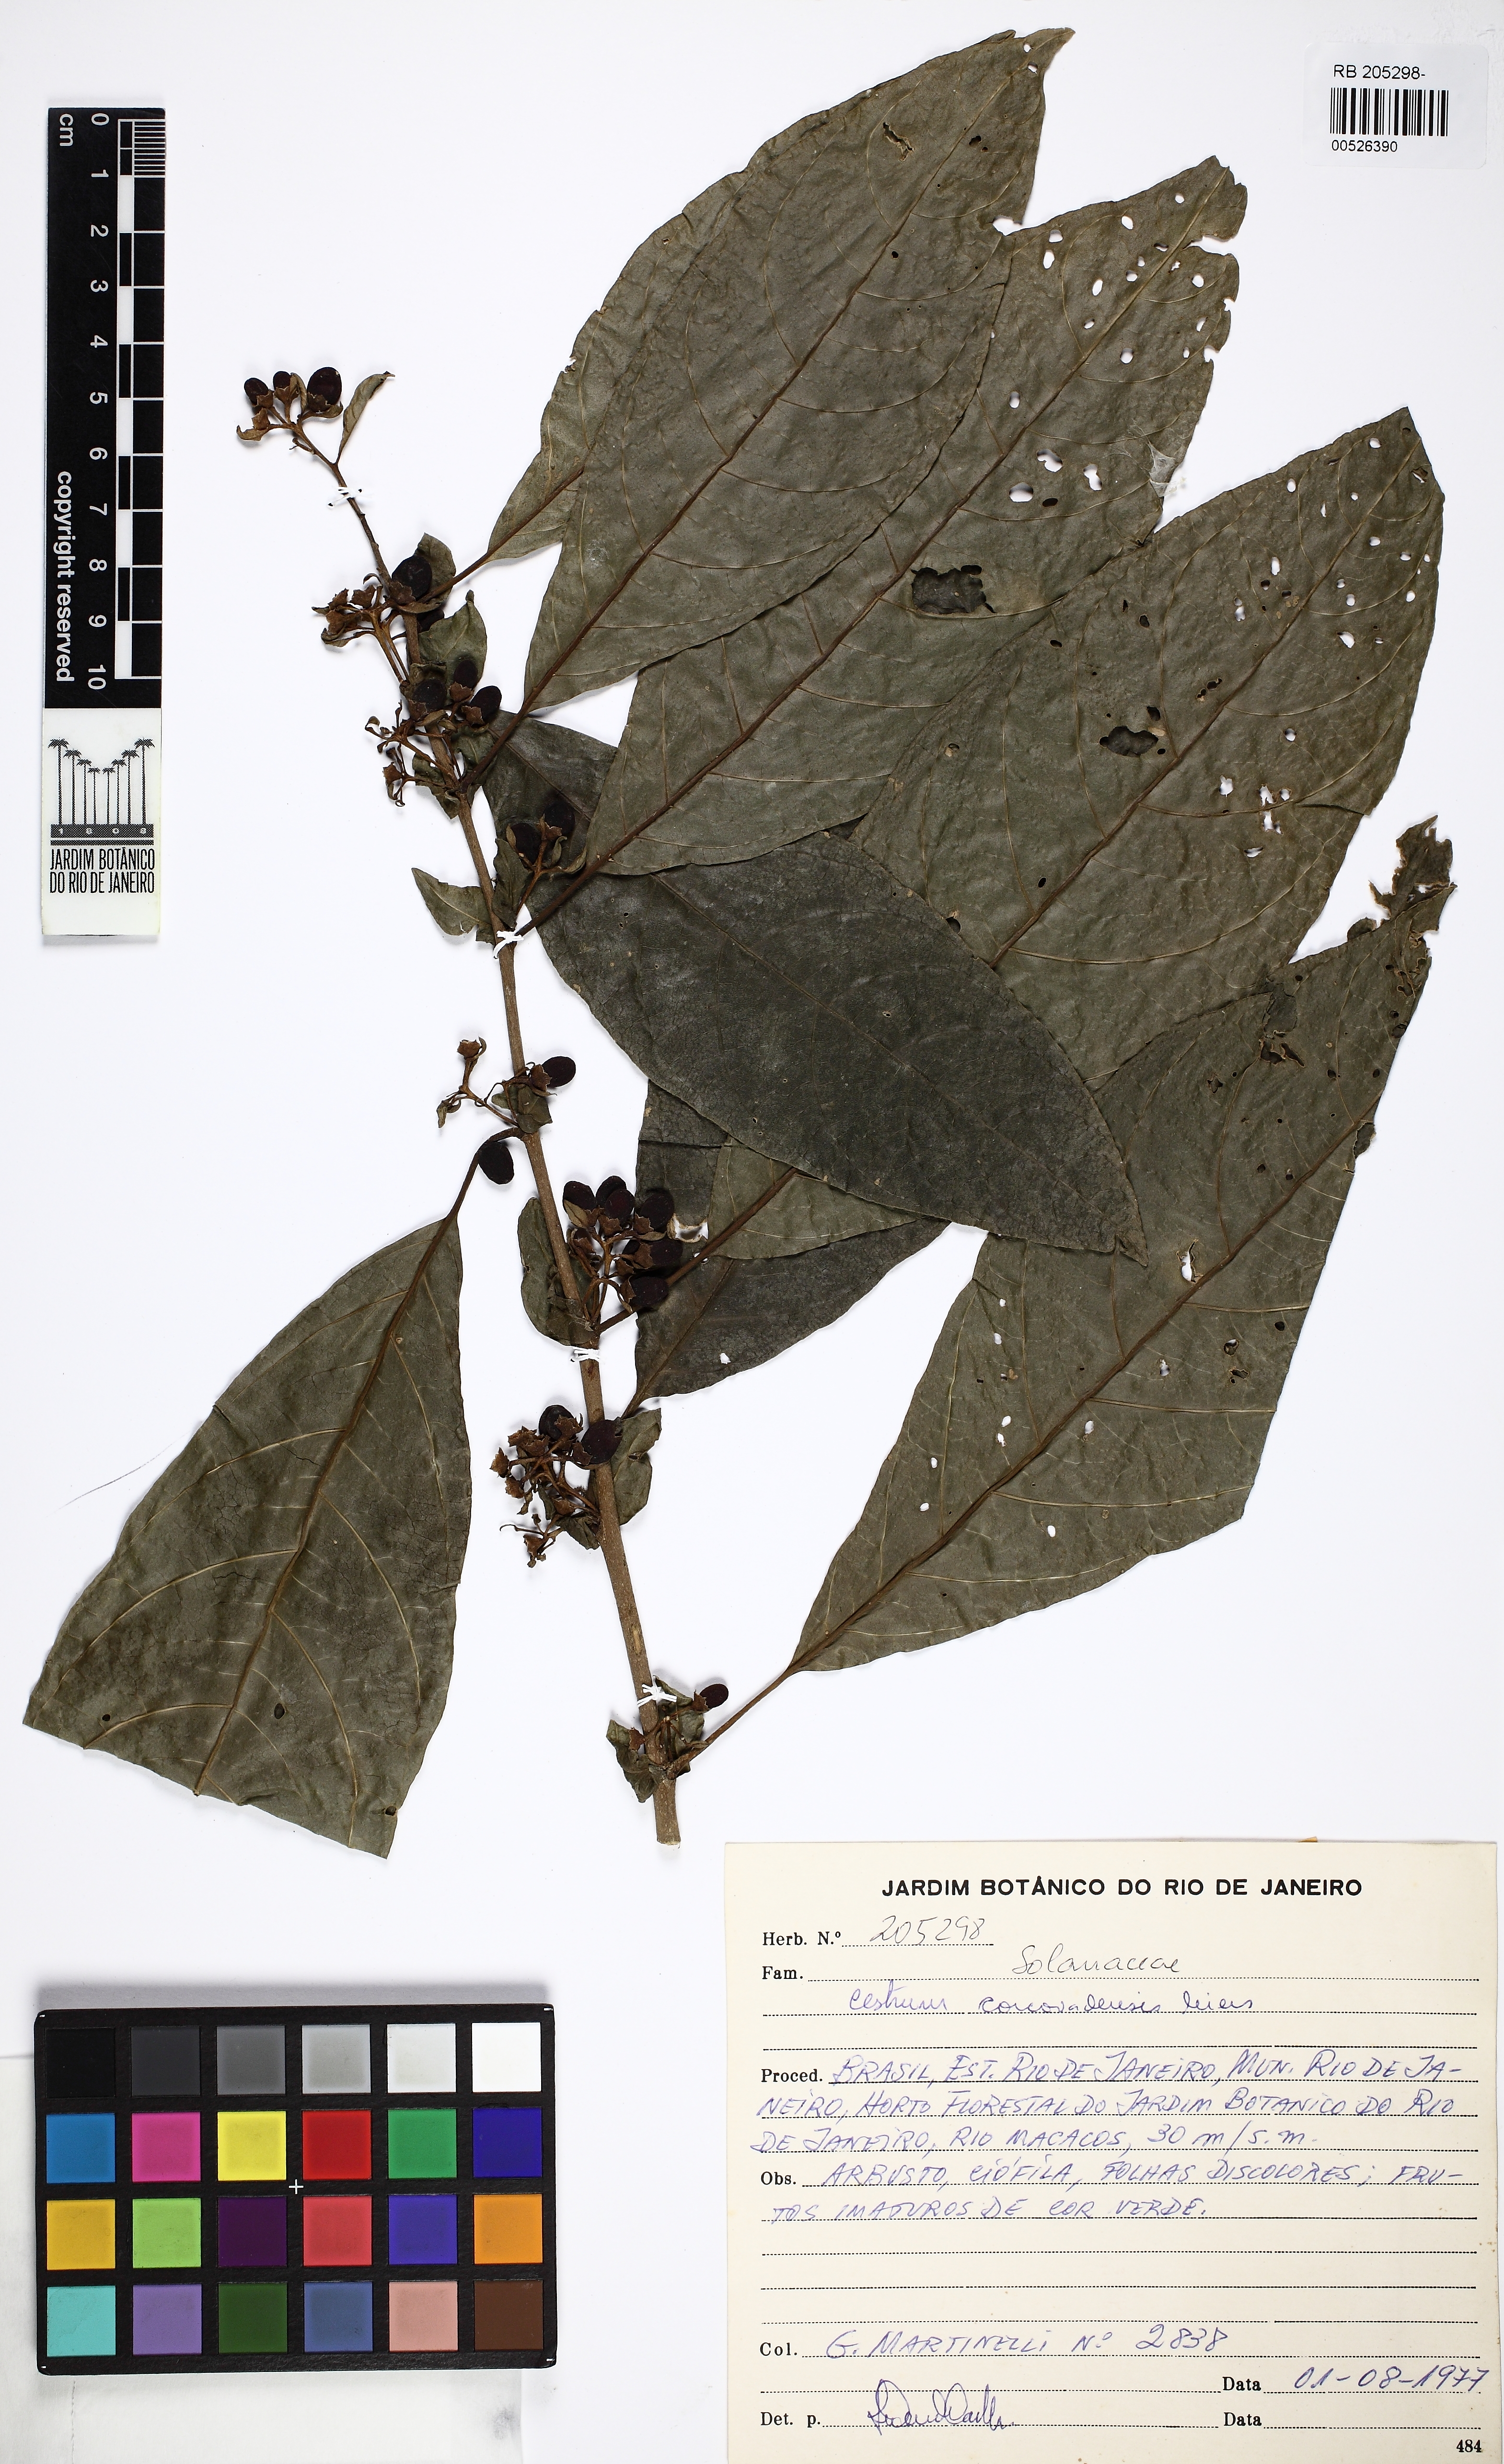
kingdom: Plantae
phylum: Tracheophyta
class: Magnoliopsida
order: Solanales
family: Solanaceae
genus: Cestrum
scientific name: Cestrum corcovadense
